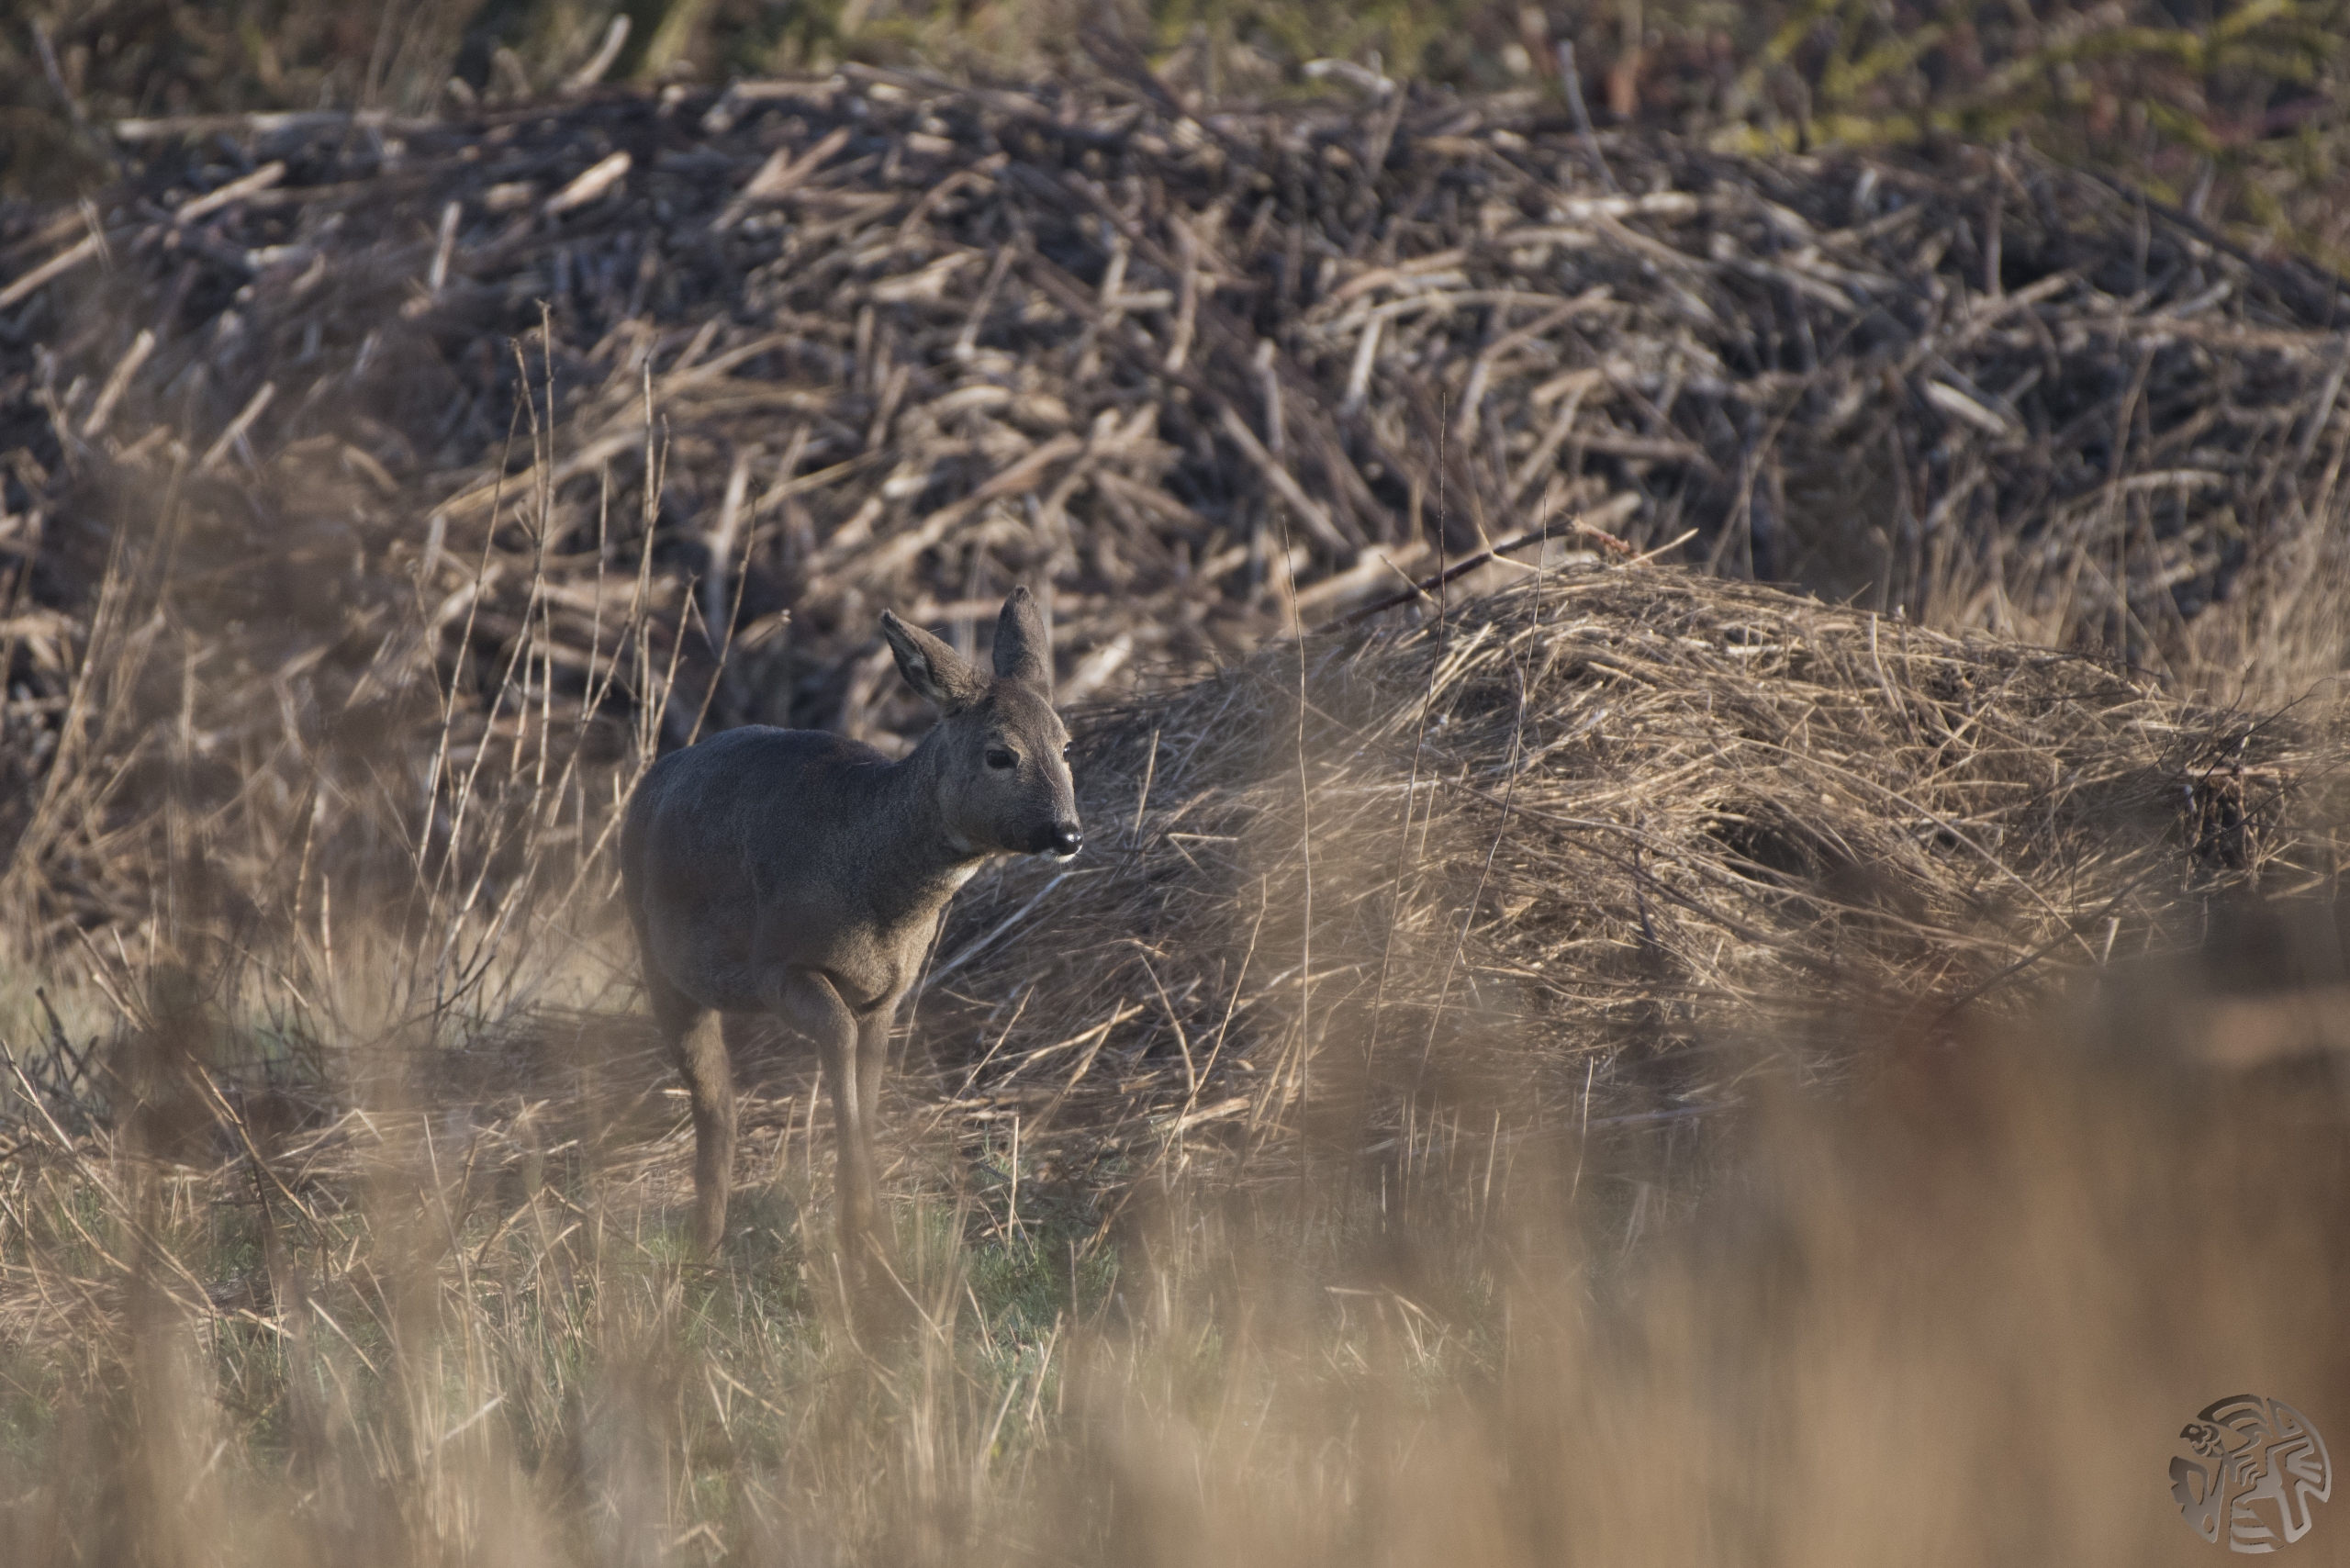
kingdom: Animalia
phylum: Chordata
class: Mammalia
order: Artiodactyla
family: Cervidae
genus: Capreolus
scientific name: Capreolus capreolus
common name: Rådyr
